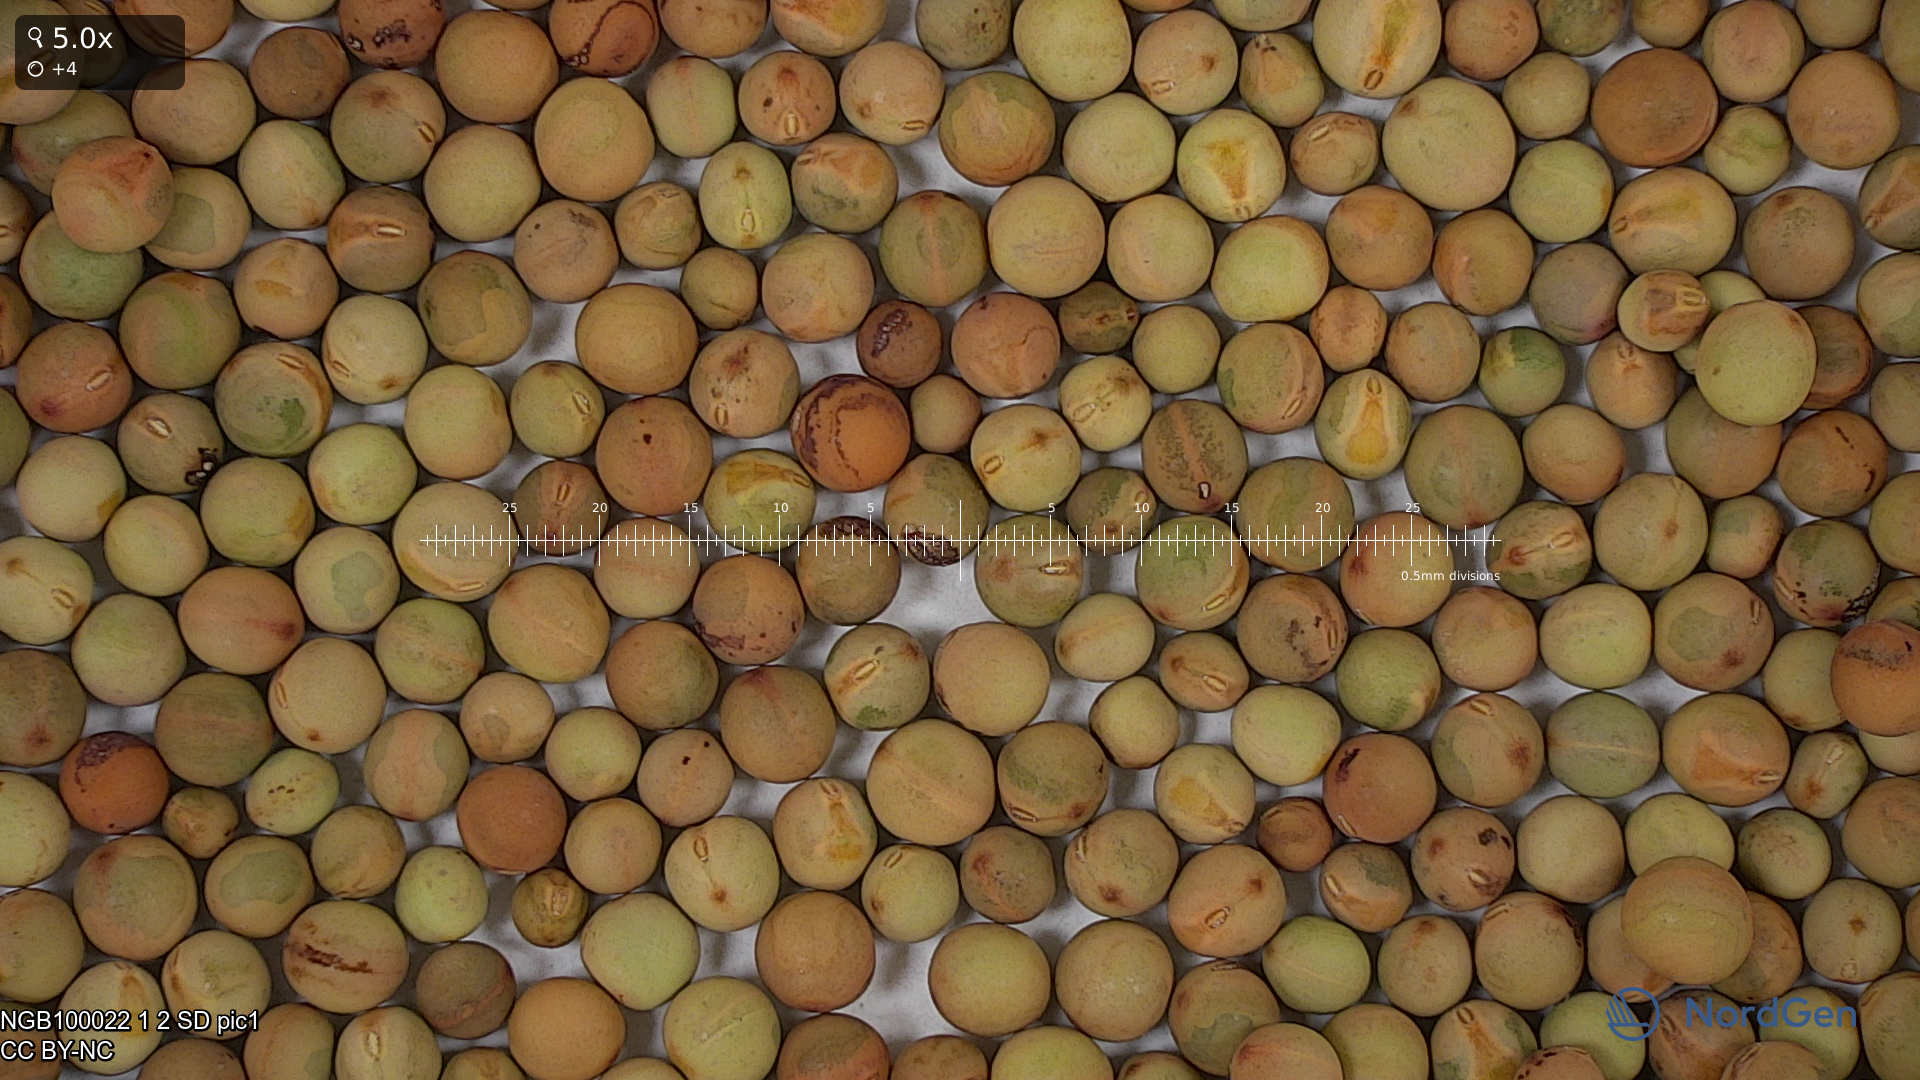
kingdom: Plantae
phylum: Tracheophyta
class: Magnoliopsida
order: Fabales
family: Fabaceae
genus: Lathyrus
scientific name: Lathyrus oleraceus
